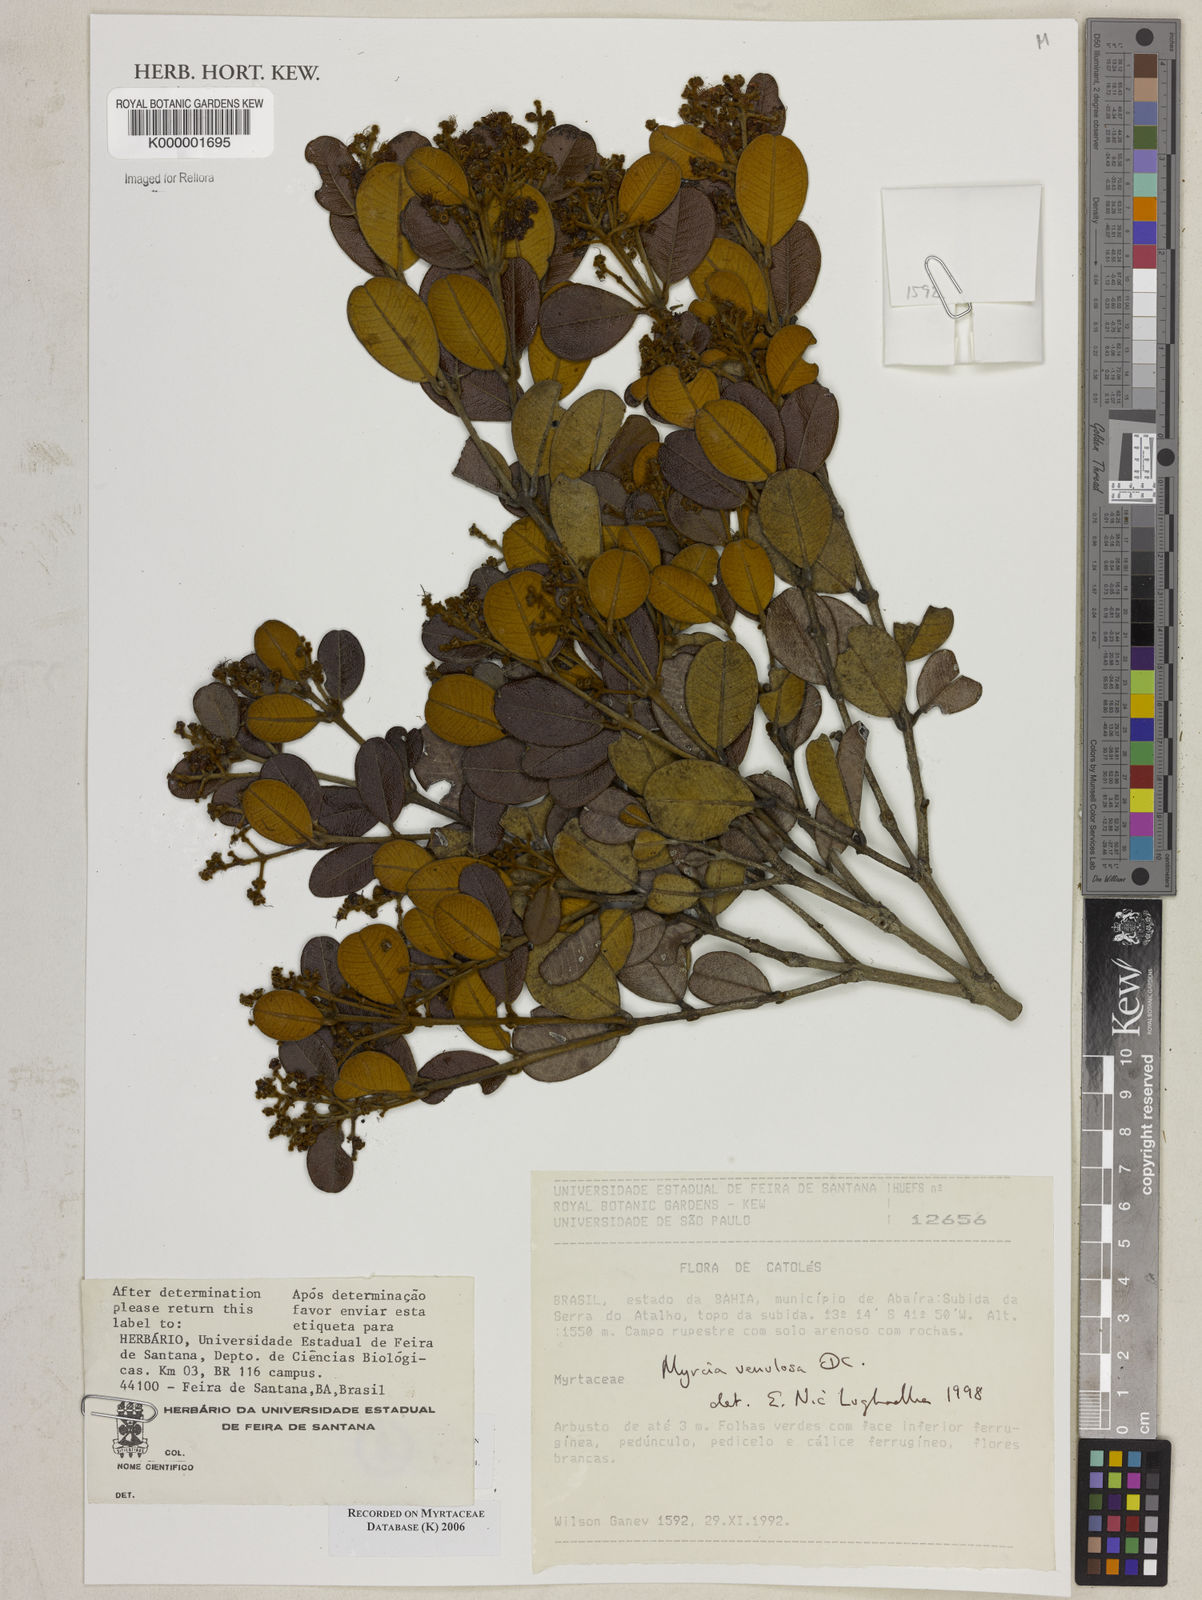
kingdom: Plantae
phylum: Tracheophyta
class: Magnoliopsida
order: Myrtales
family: Myrtaceae
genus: Myrcia
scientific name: Myrcia venulosa
